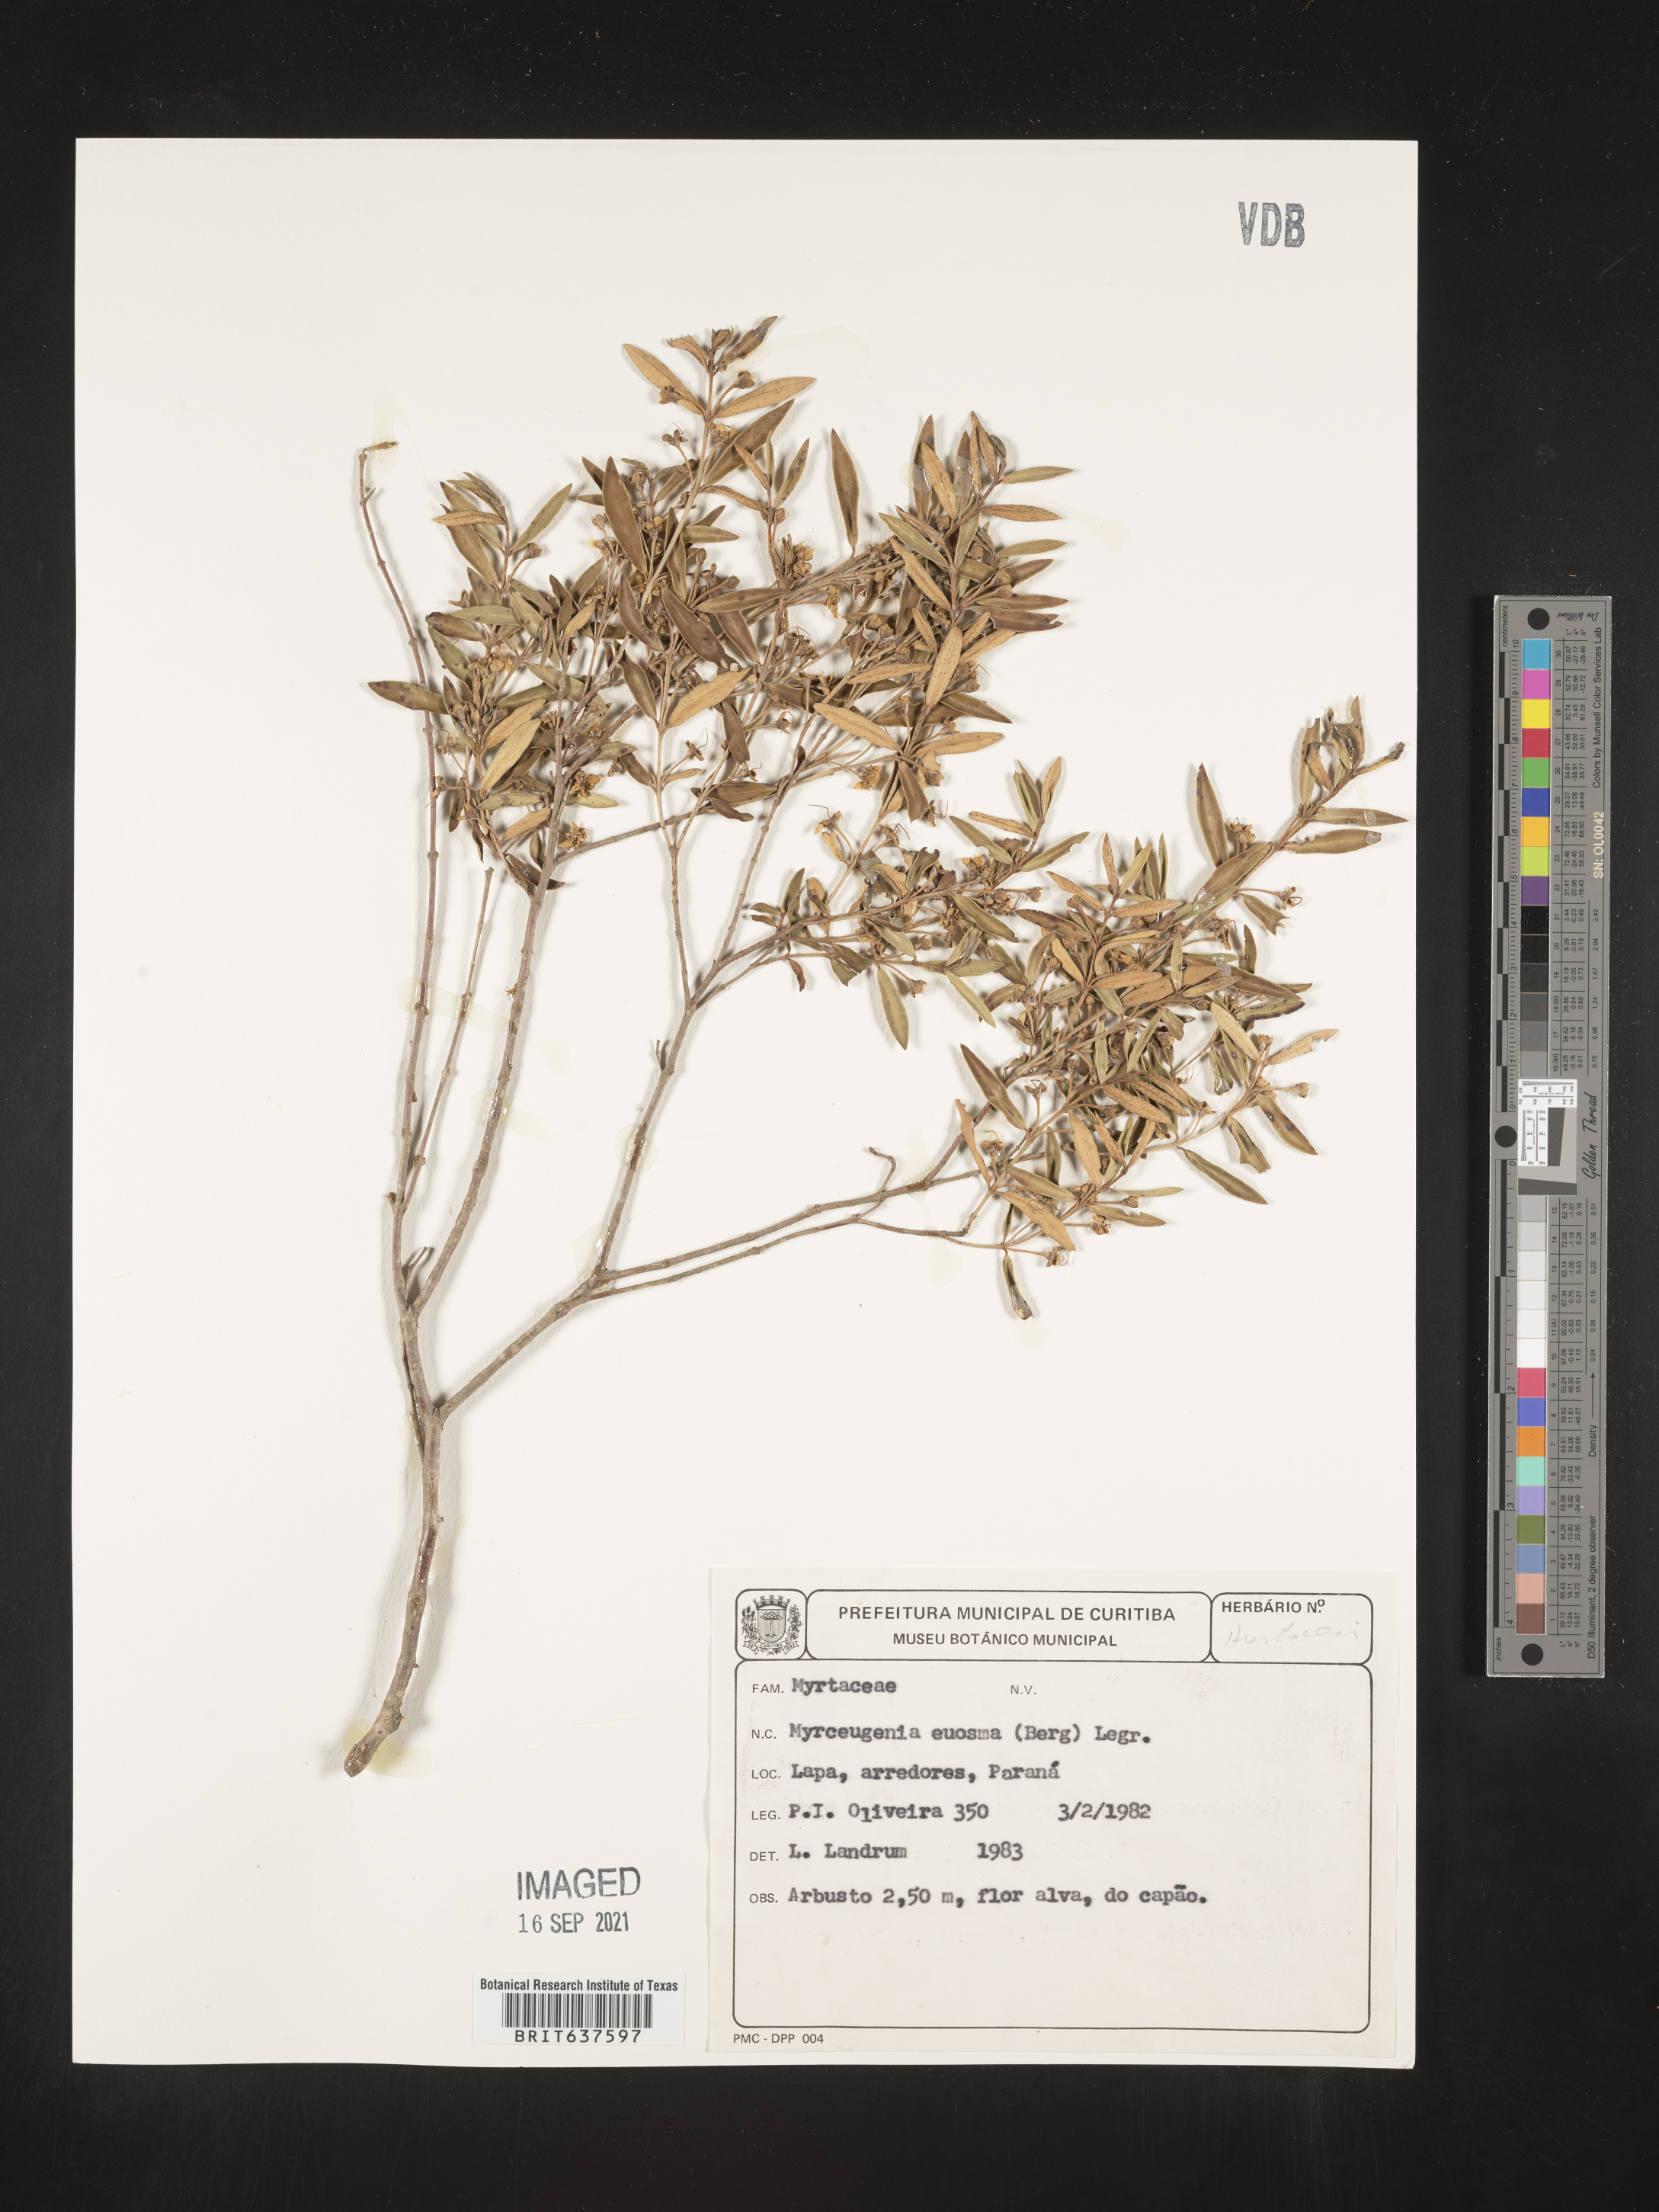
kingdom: Plantae
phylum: Tracheophyta
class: Magnoliopsida
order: Myrtales
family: Myrtaceae
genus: Myrceugenia
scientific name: Myrceugenia
